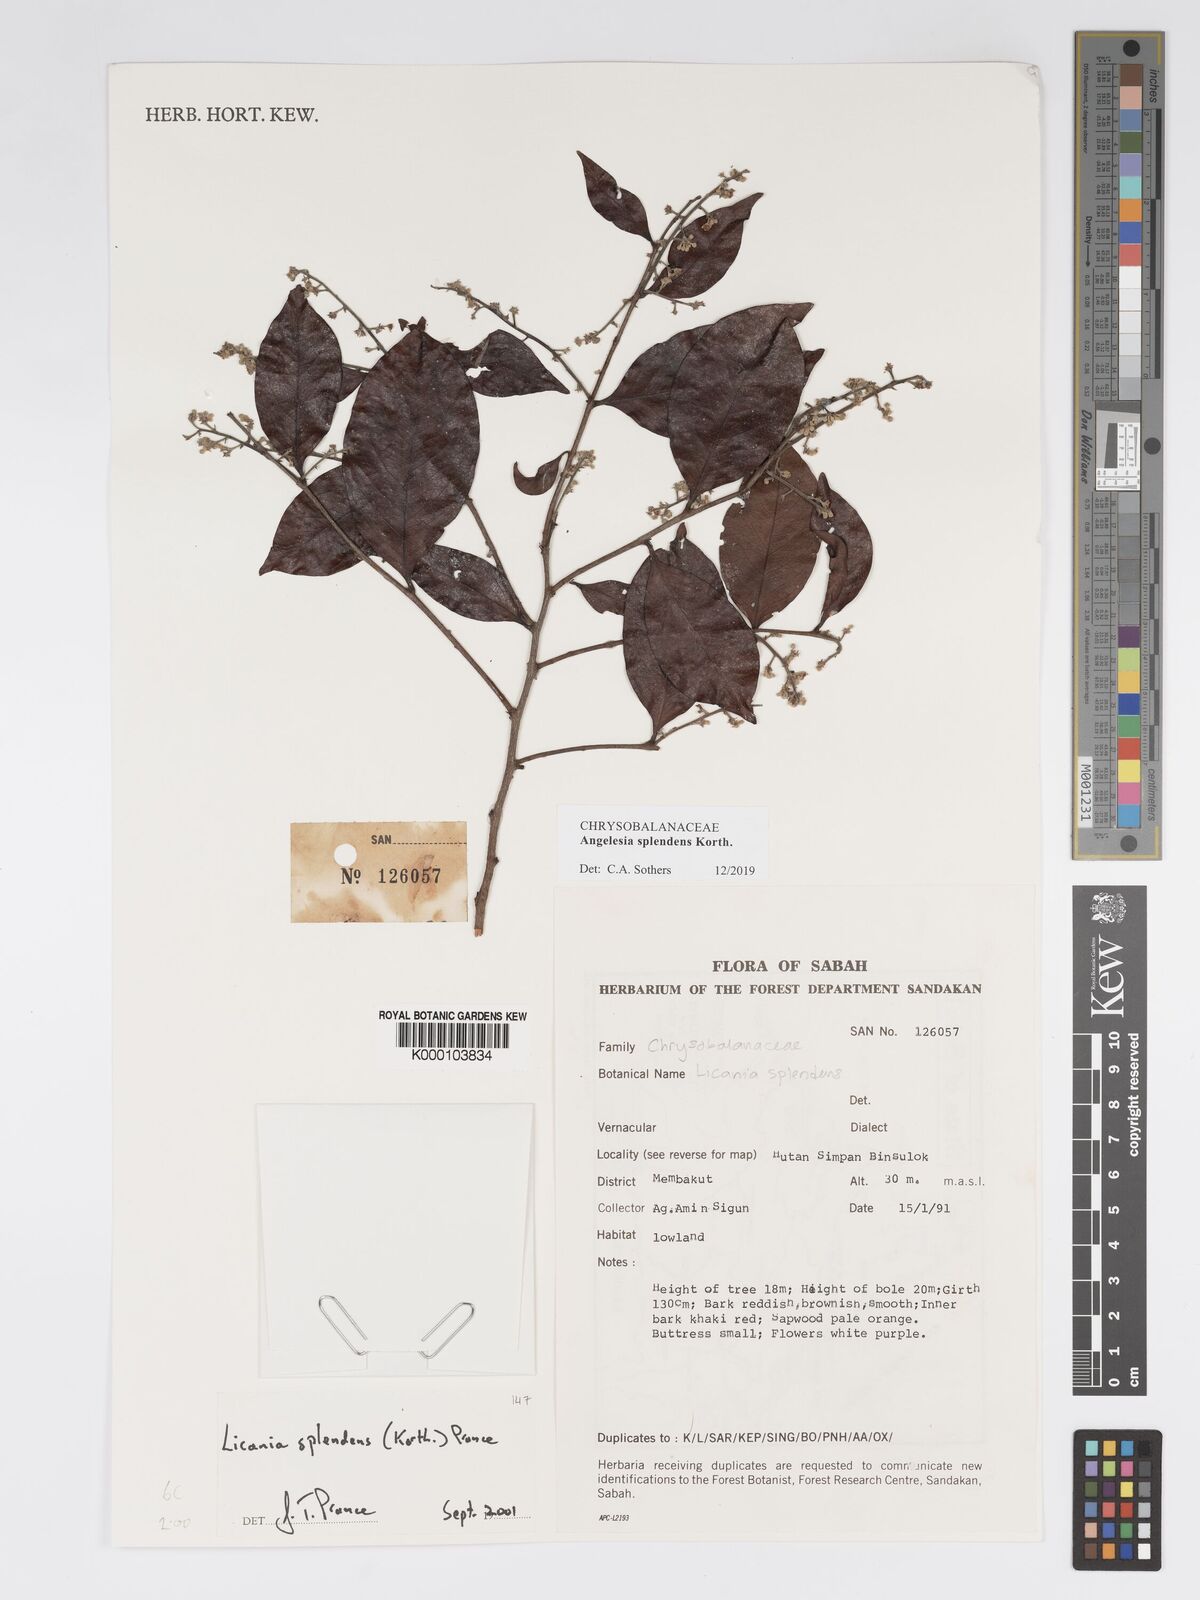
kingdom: Plantae
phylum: Tracheophyta
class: Magnoliopsida
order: Malpighiales
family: Chrysobalanaceae
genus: Angelesia
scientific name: Angelesia splendens
